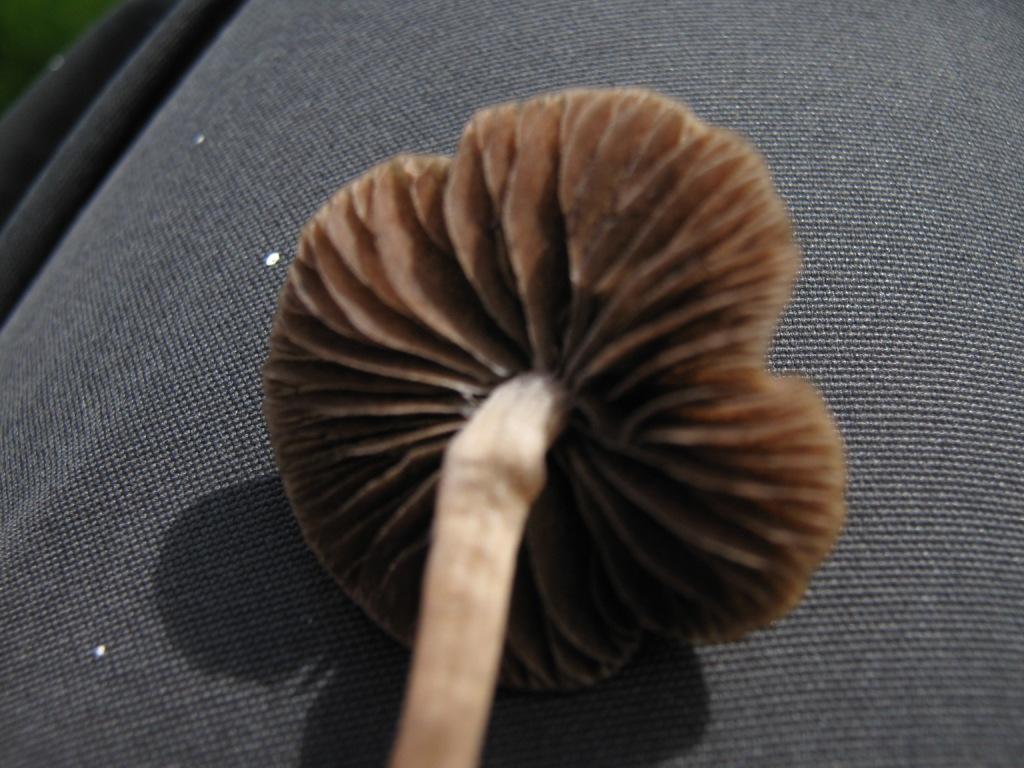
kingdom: Fungi
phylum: Basidiomycota
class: Agaricomycetes
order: Agaricales
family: Bolbitiaceae
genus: Panaeolina
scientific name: Panaeolina foenisecii
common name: høslætsvamp
